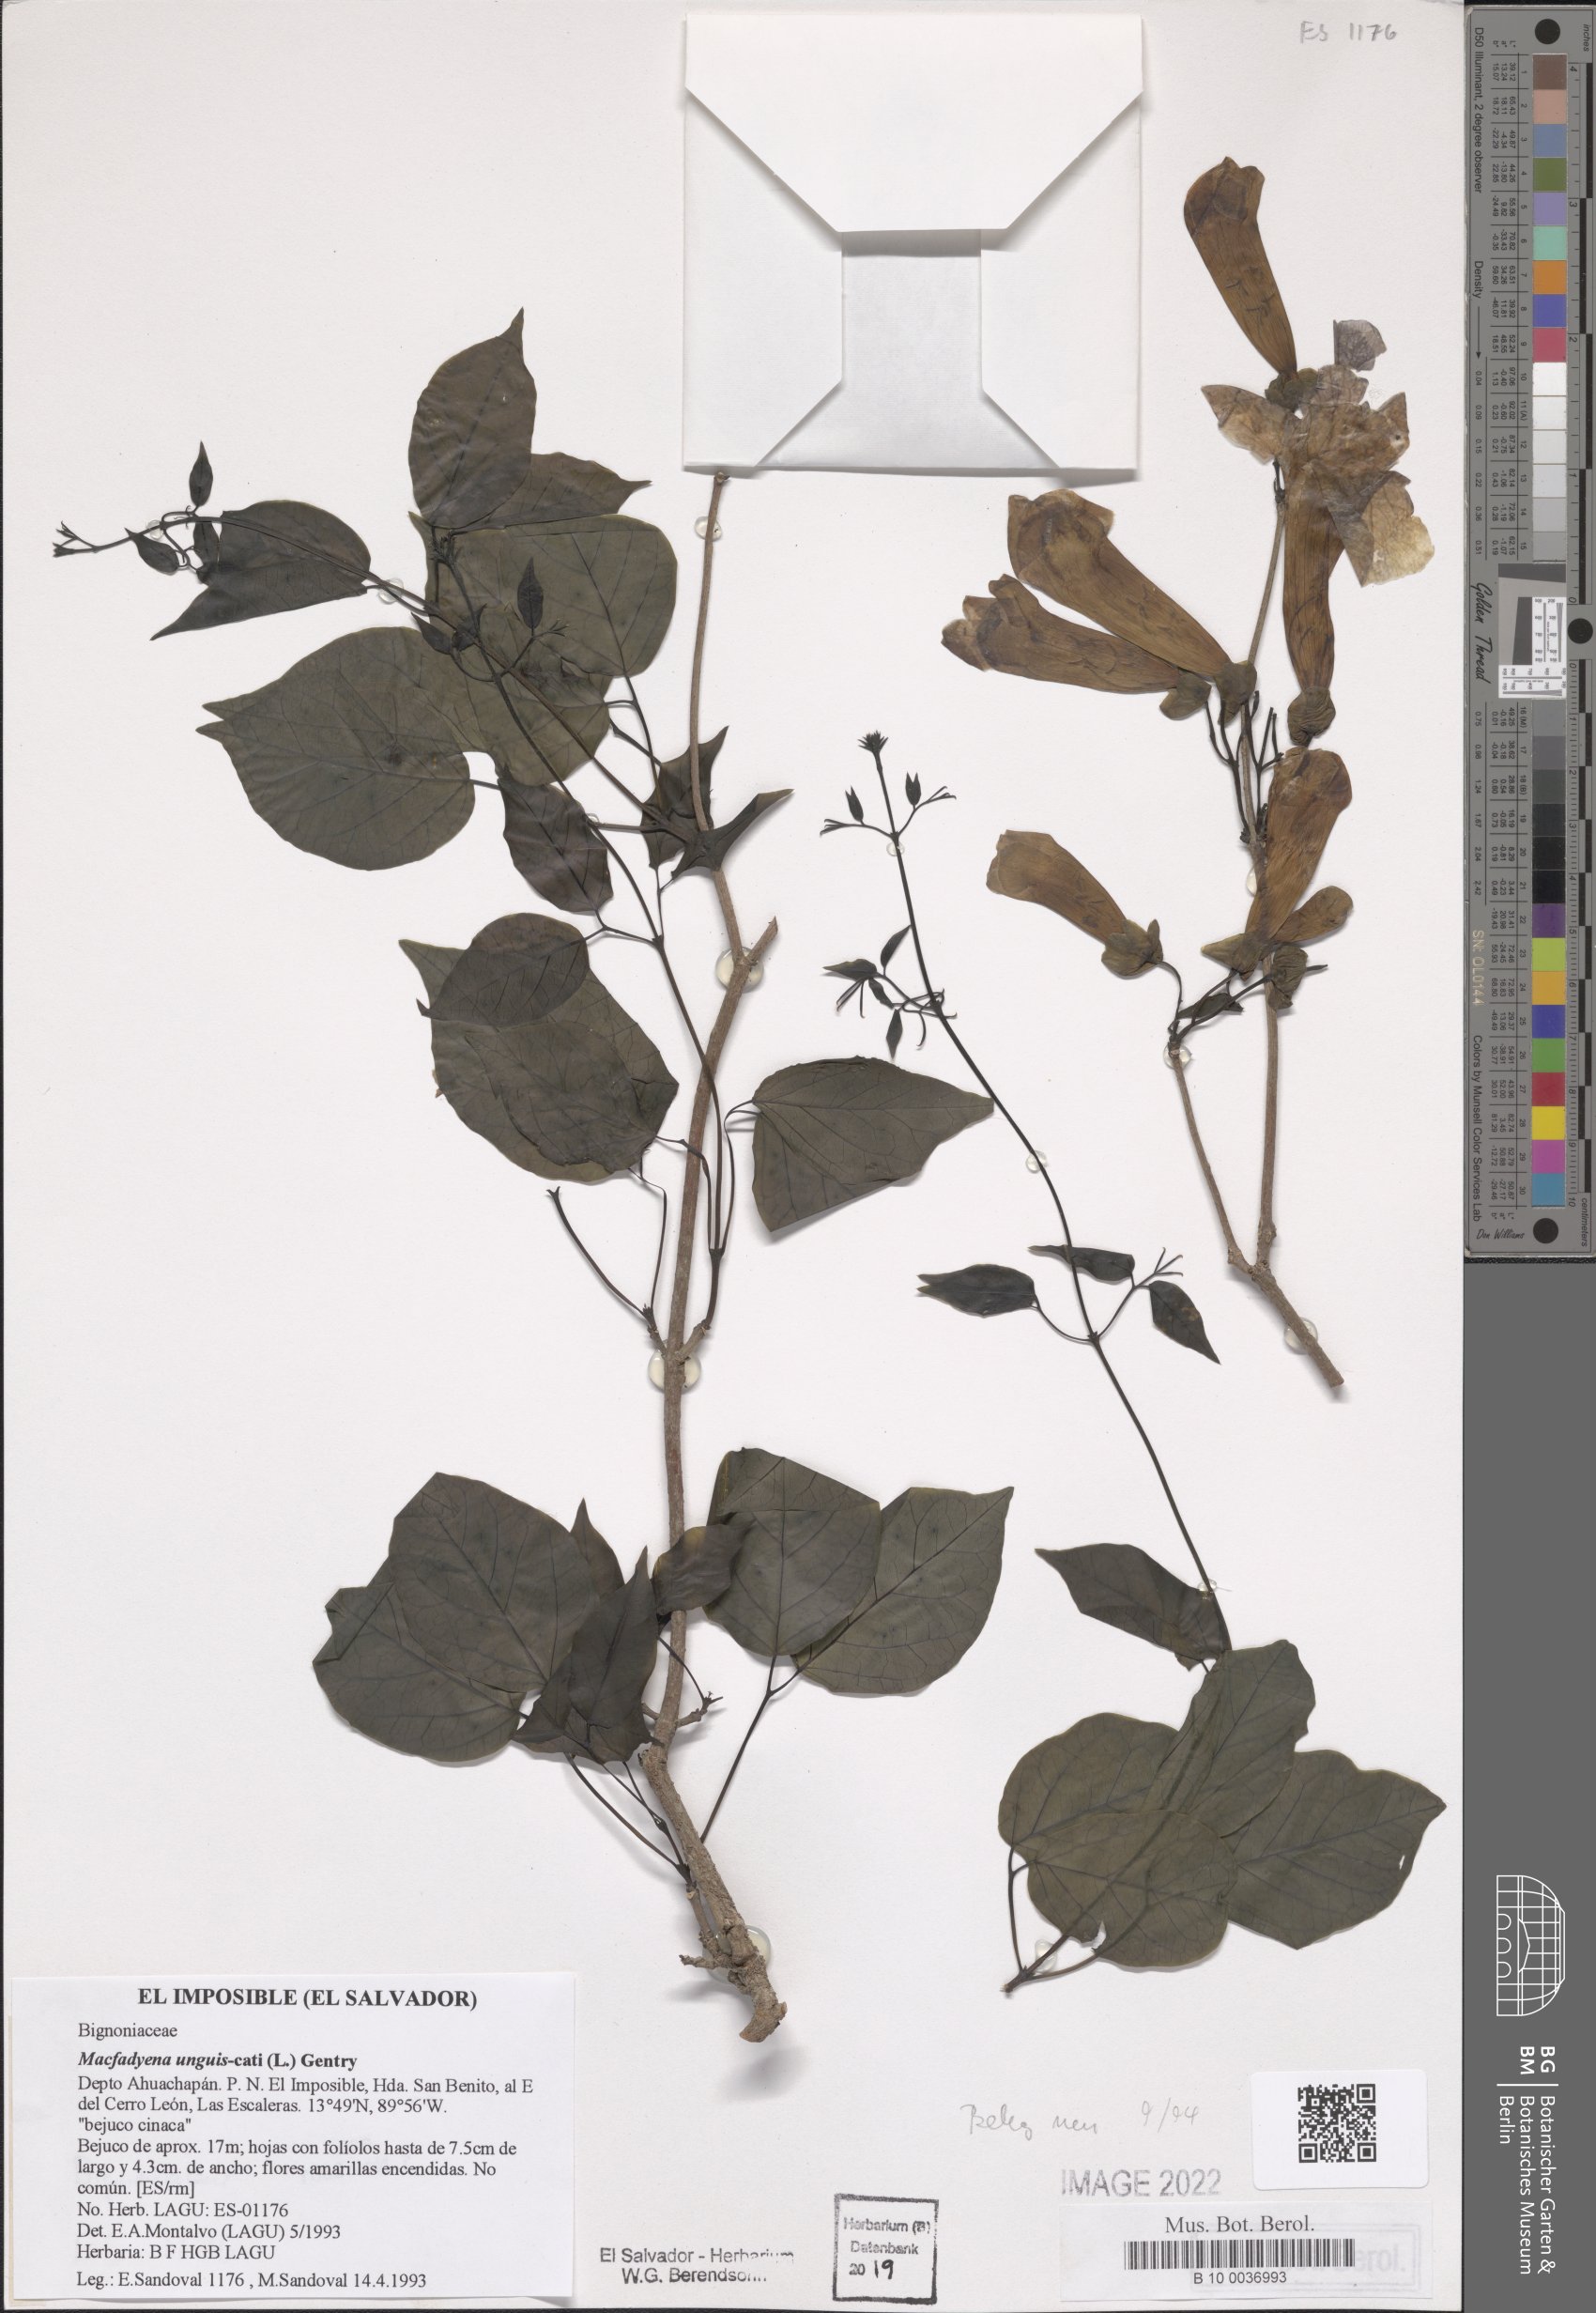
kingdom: Plantae
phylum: Tracheophyta
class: Magnoliopsida
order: Lamiales
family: Bignoniaceae
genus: Dolichandra
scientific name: Dolichandra unguis-cati
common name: Catclaw vine
